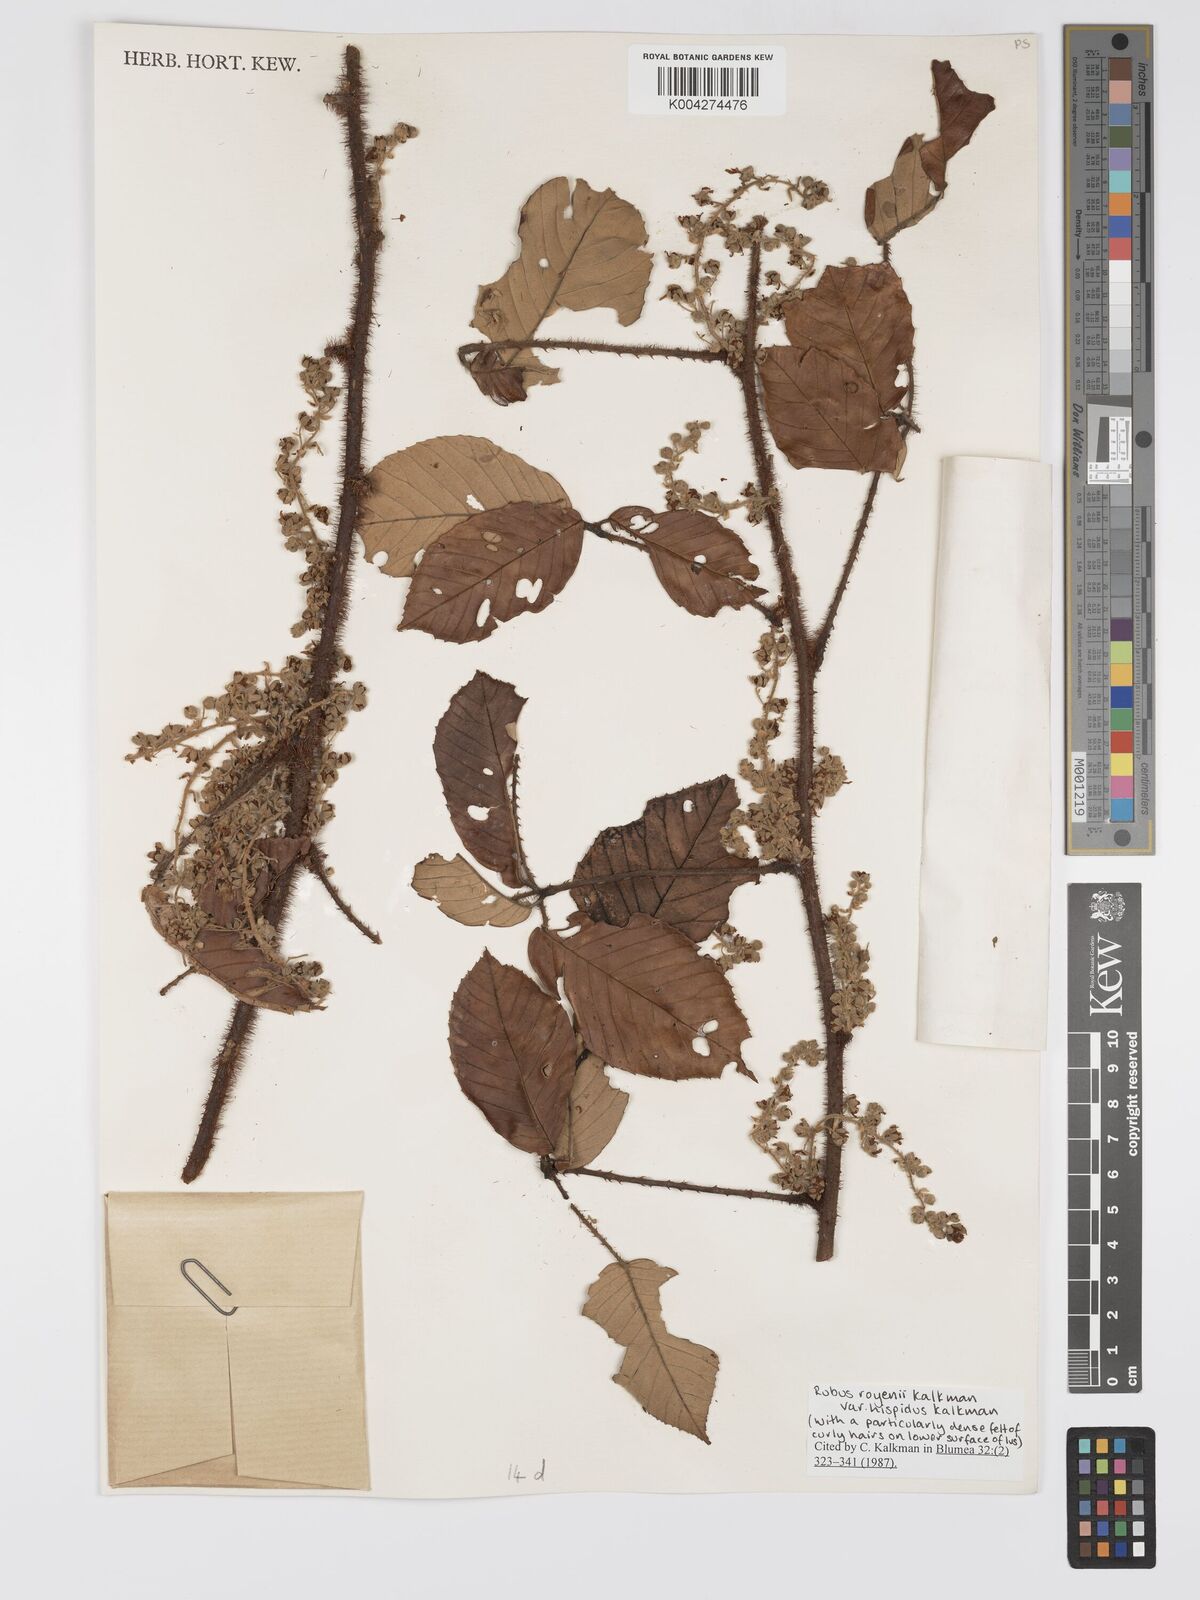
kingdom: Plantae
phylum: Tracheophyta
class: Magnoliopsida
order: Rosales
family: Rosaceae
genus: Rubus
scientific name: Rubus royenii
